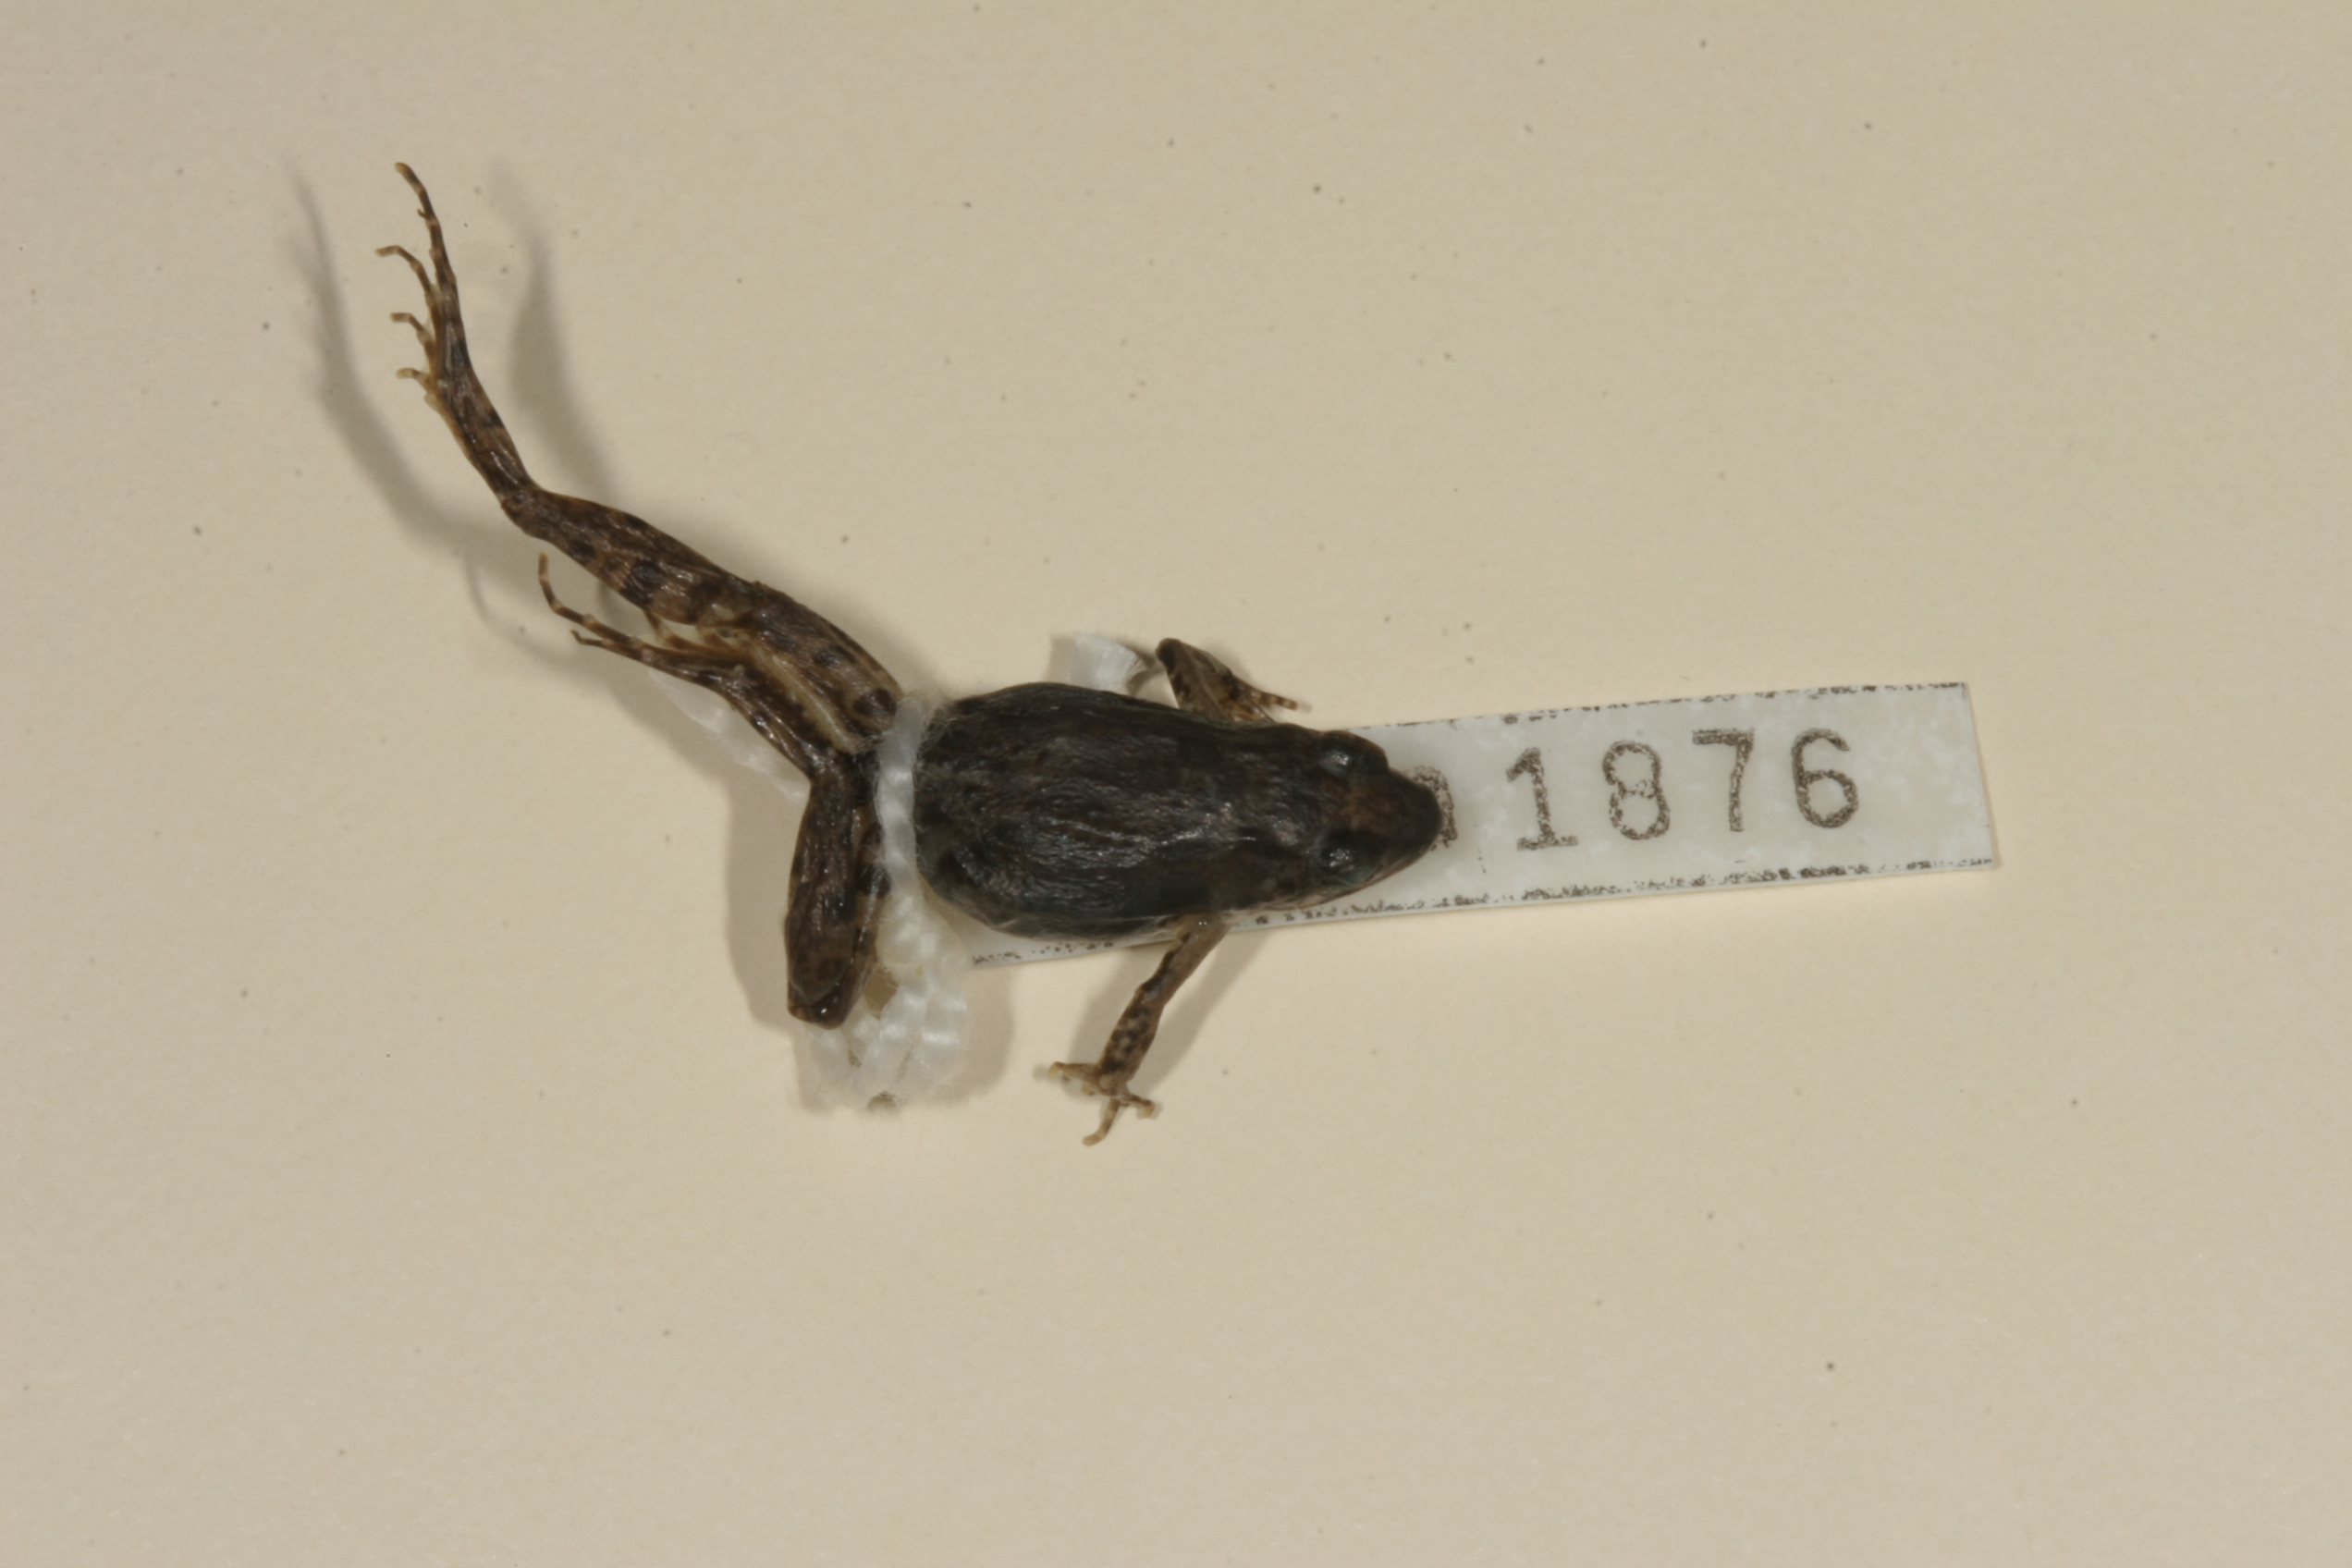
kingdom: Animalia
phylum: Chordata
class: Amphibia
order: Anura
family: Phrynobatrachidae
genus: Phrynobatrachus
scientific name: Phrynobatrachus mababiensis
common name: Dwarf puddle frog
